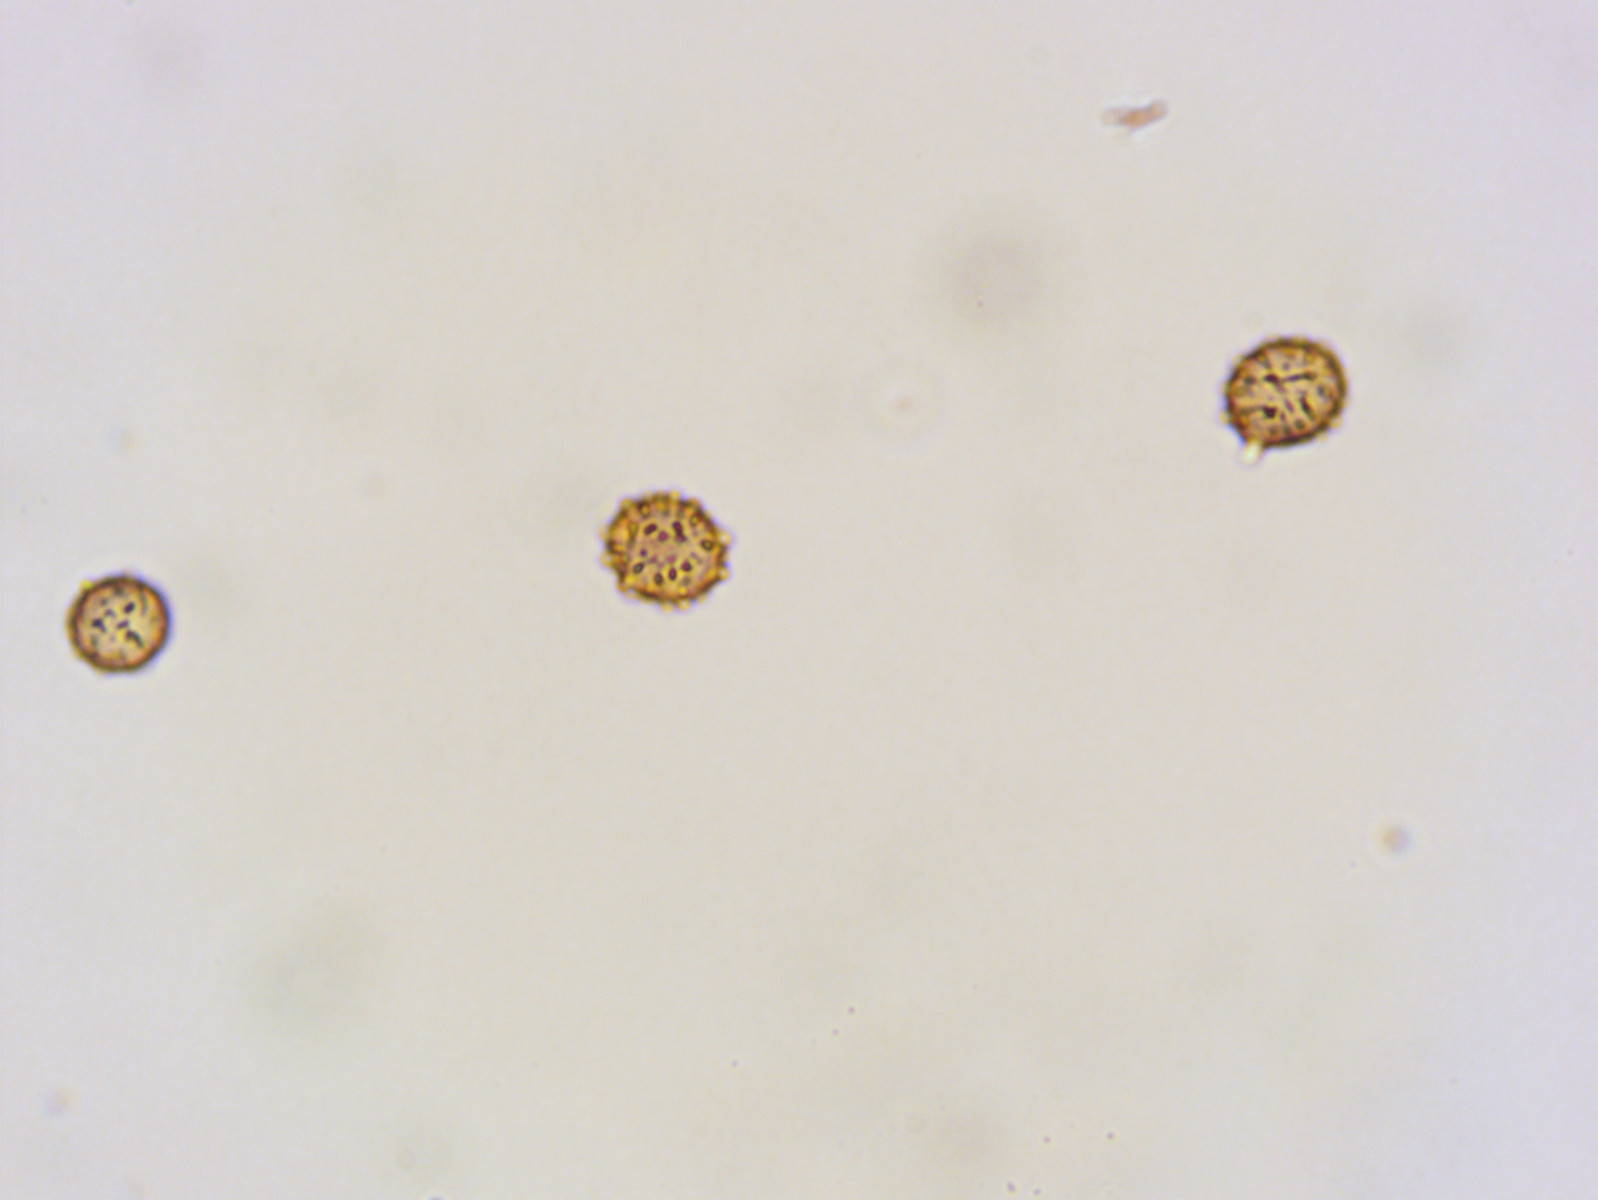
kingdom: Fungi
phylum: Basidiomycota
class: Agaricomycetes
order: Russulales
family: Russulaceae
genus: Russula
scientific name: Russula pseudointegra
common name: cinnoberrød skørhat
